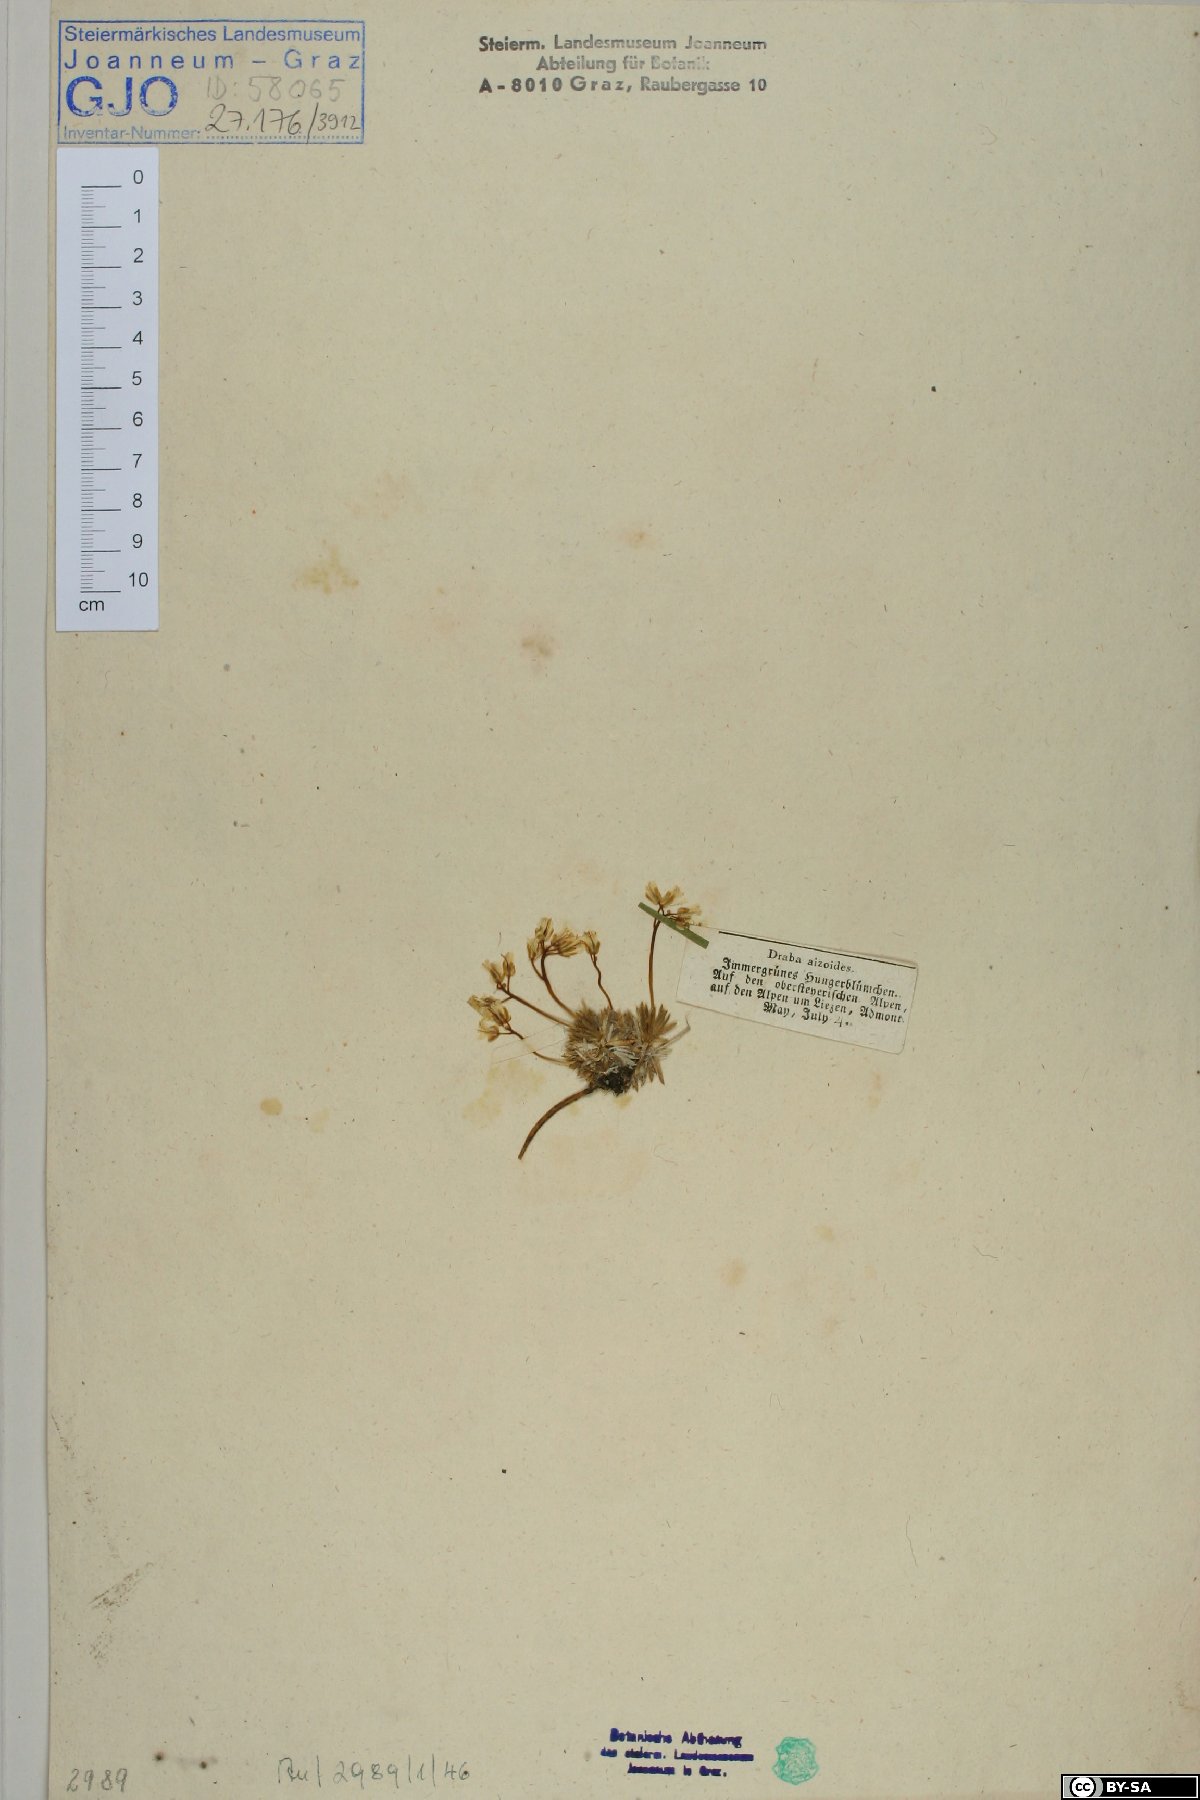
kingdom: Plantae
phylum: Tracheophyta
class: Magnoliopsida
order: Brassicales
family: Brassicaceae
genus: Draba
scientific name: Draba aizoides
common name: Yellow whitlowgrass
